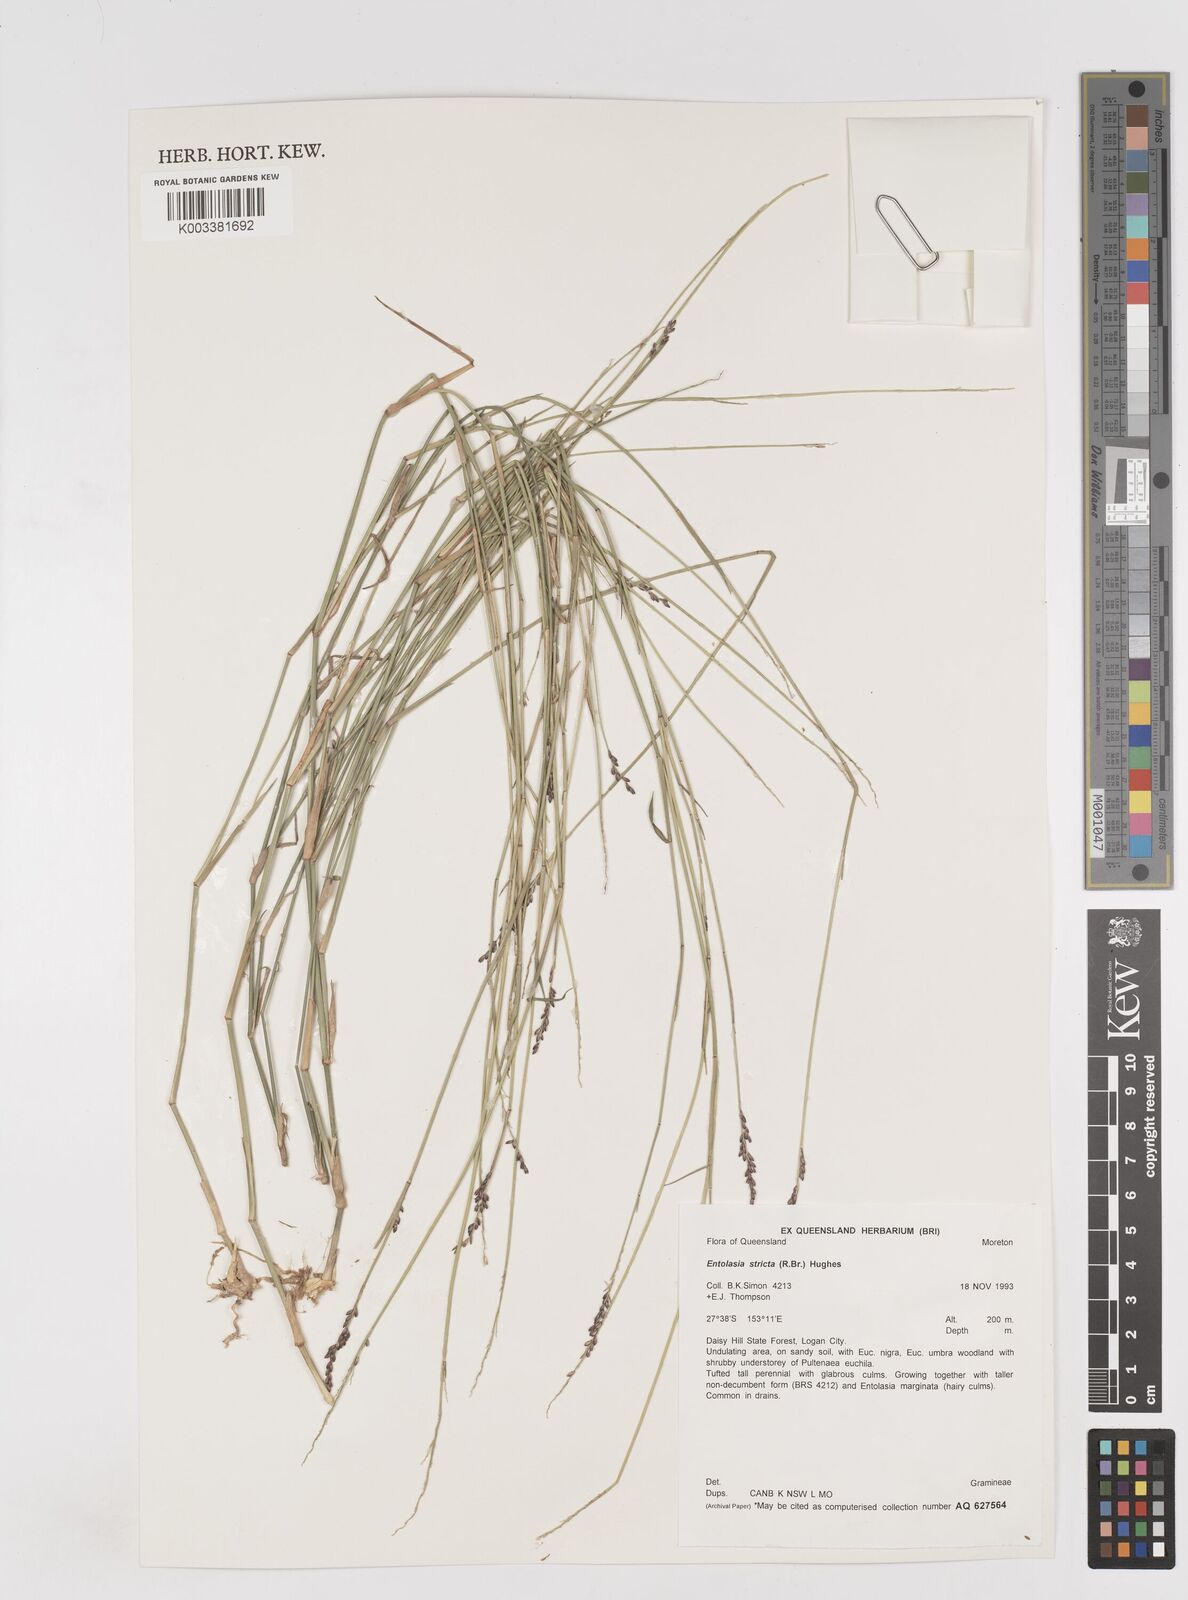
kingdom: Plantae
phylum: Tracheophyta
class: Liliopsida
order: Poales
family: Poaceae
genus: Entolasia
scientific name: Entolasia stricta
